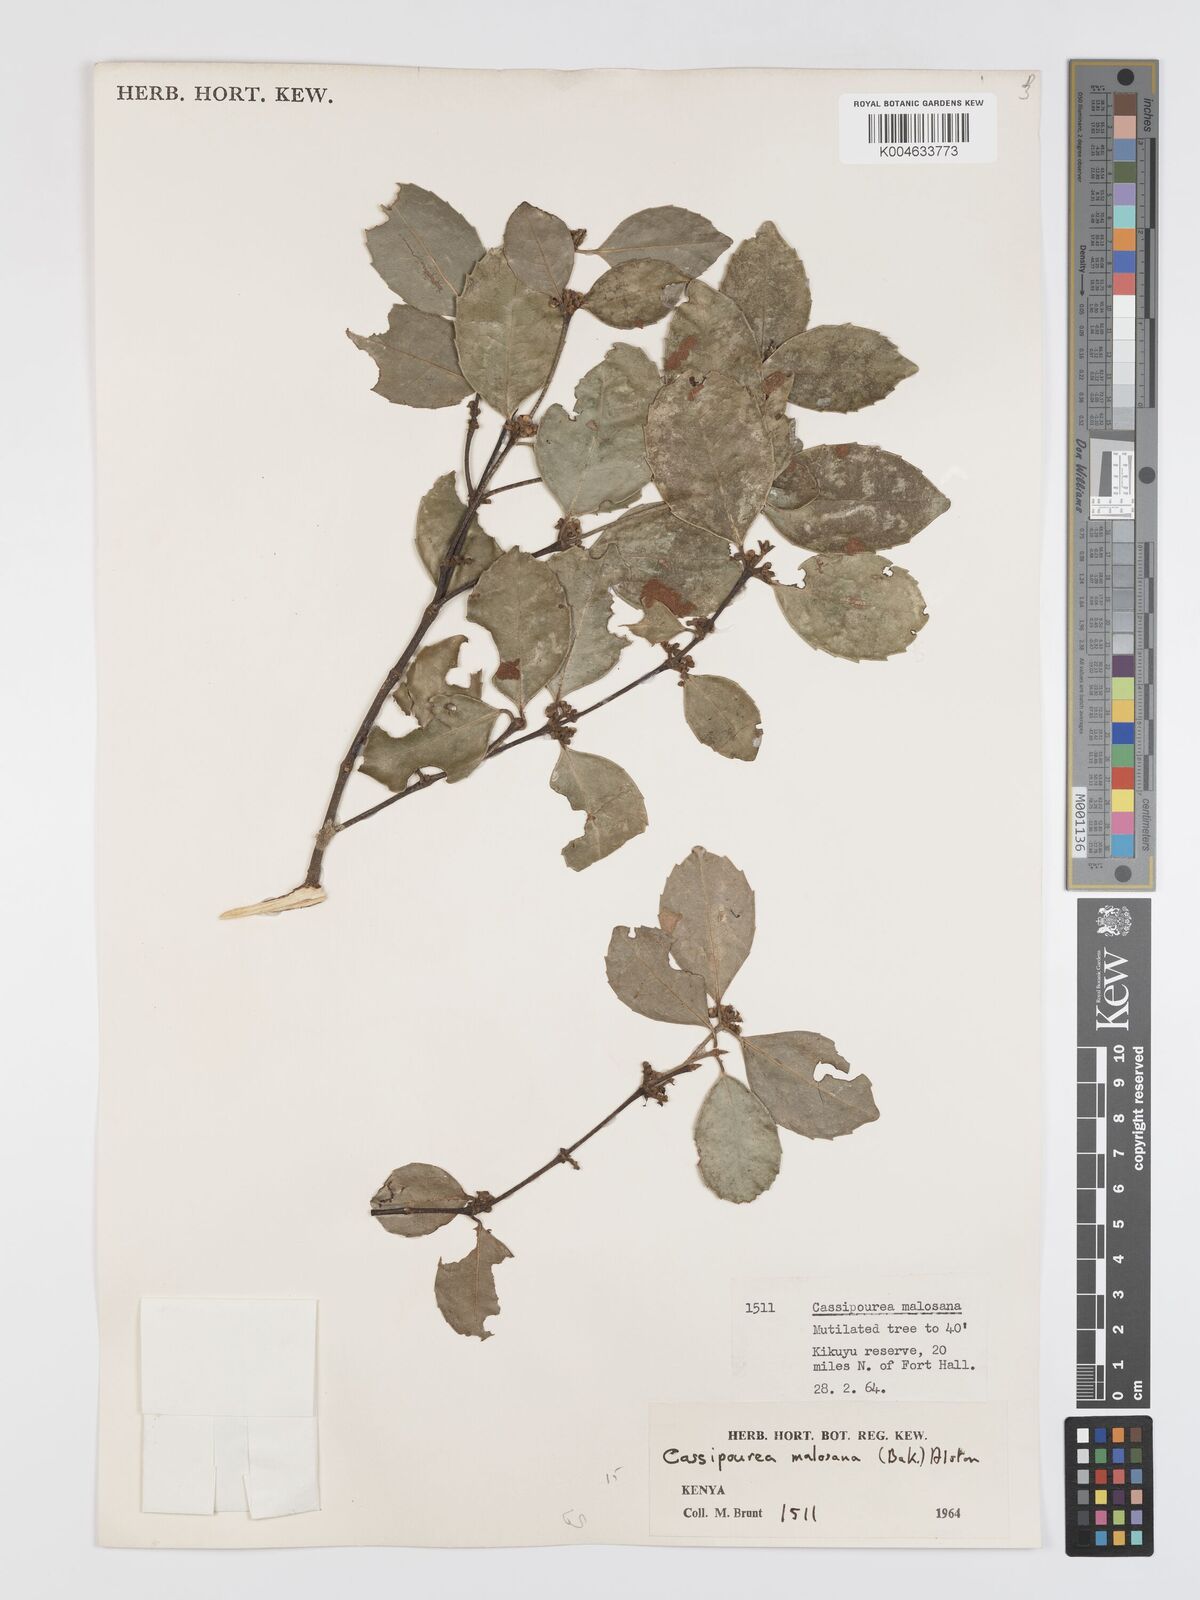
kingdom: Plantae
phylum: Tracheophyta
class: Magnoliopsida
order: Malpighiales
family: Rhizophoraceae
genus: Cassipourea
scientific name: Cassipourea malosana
